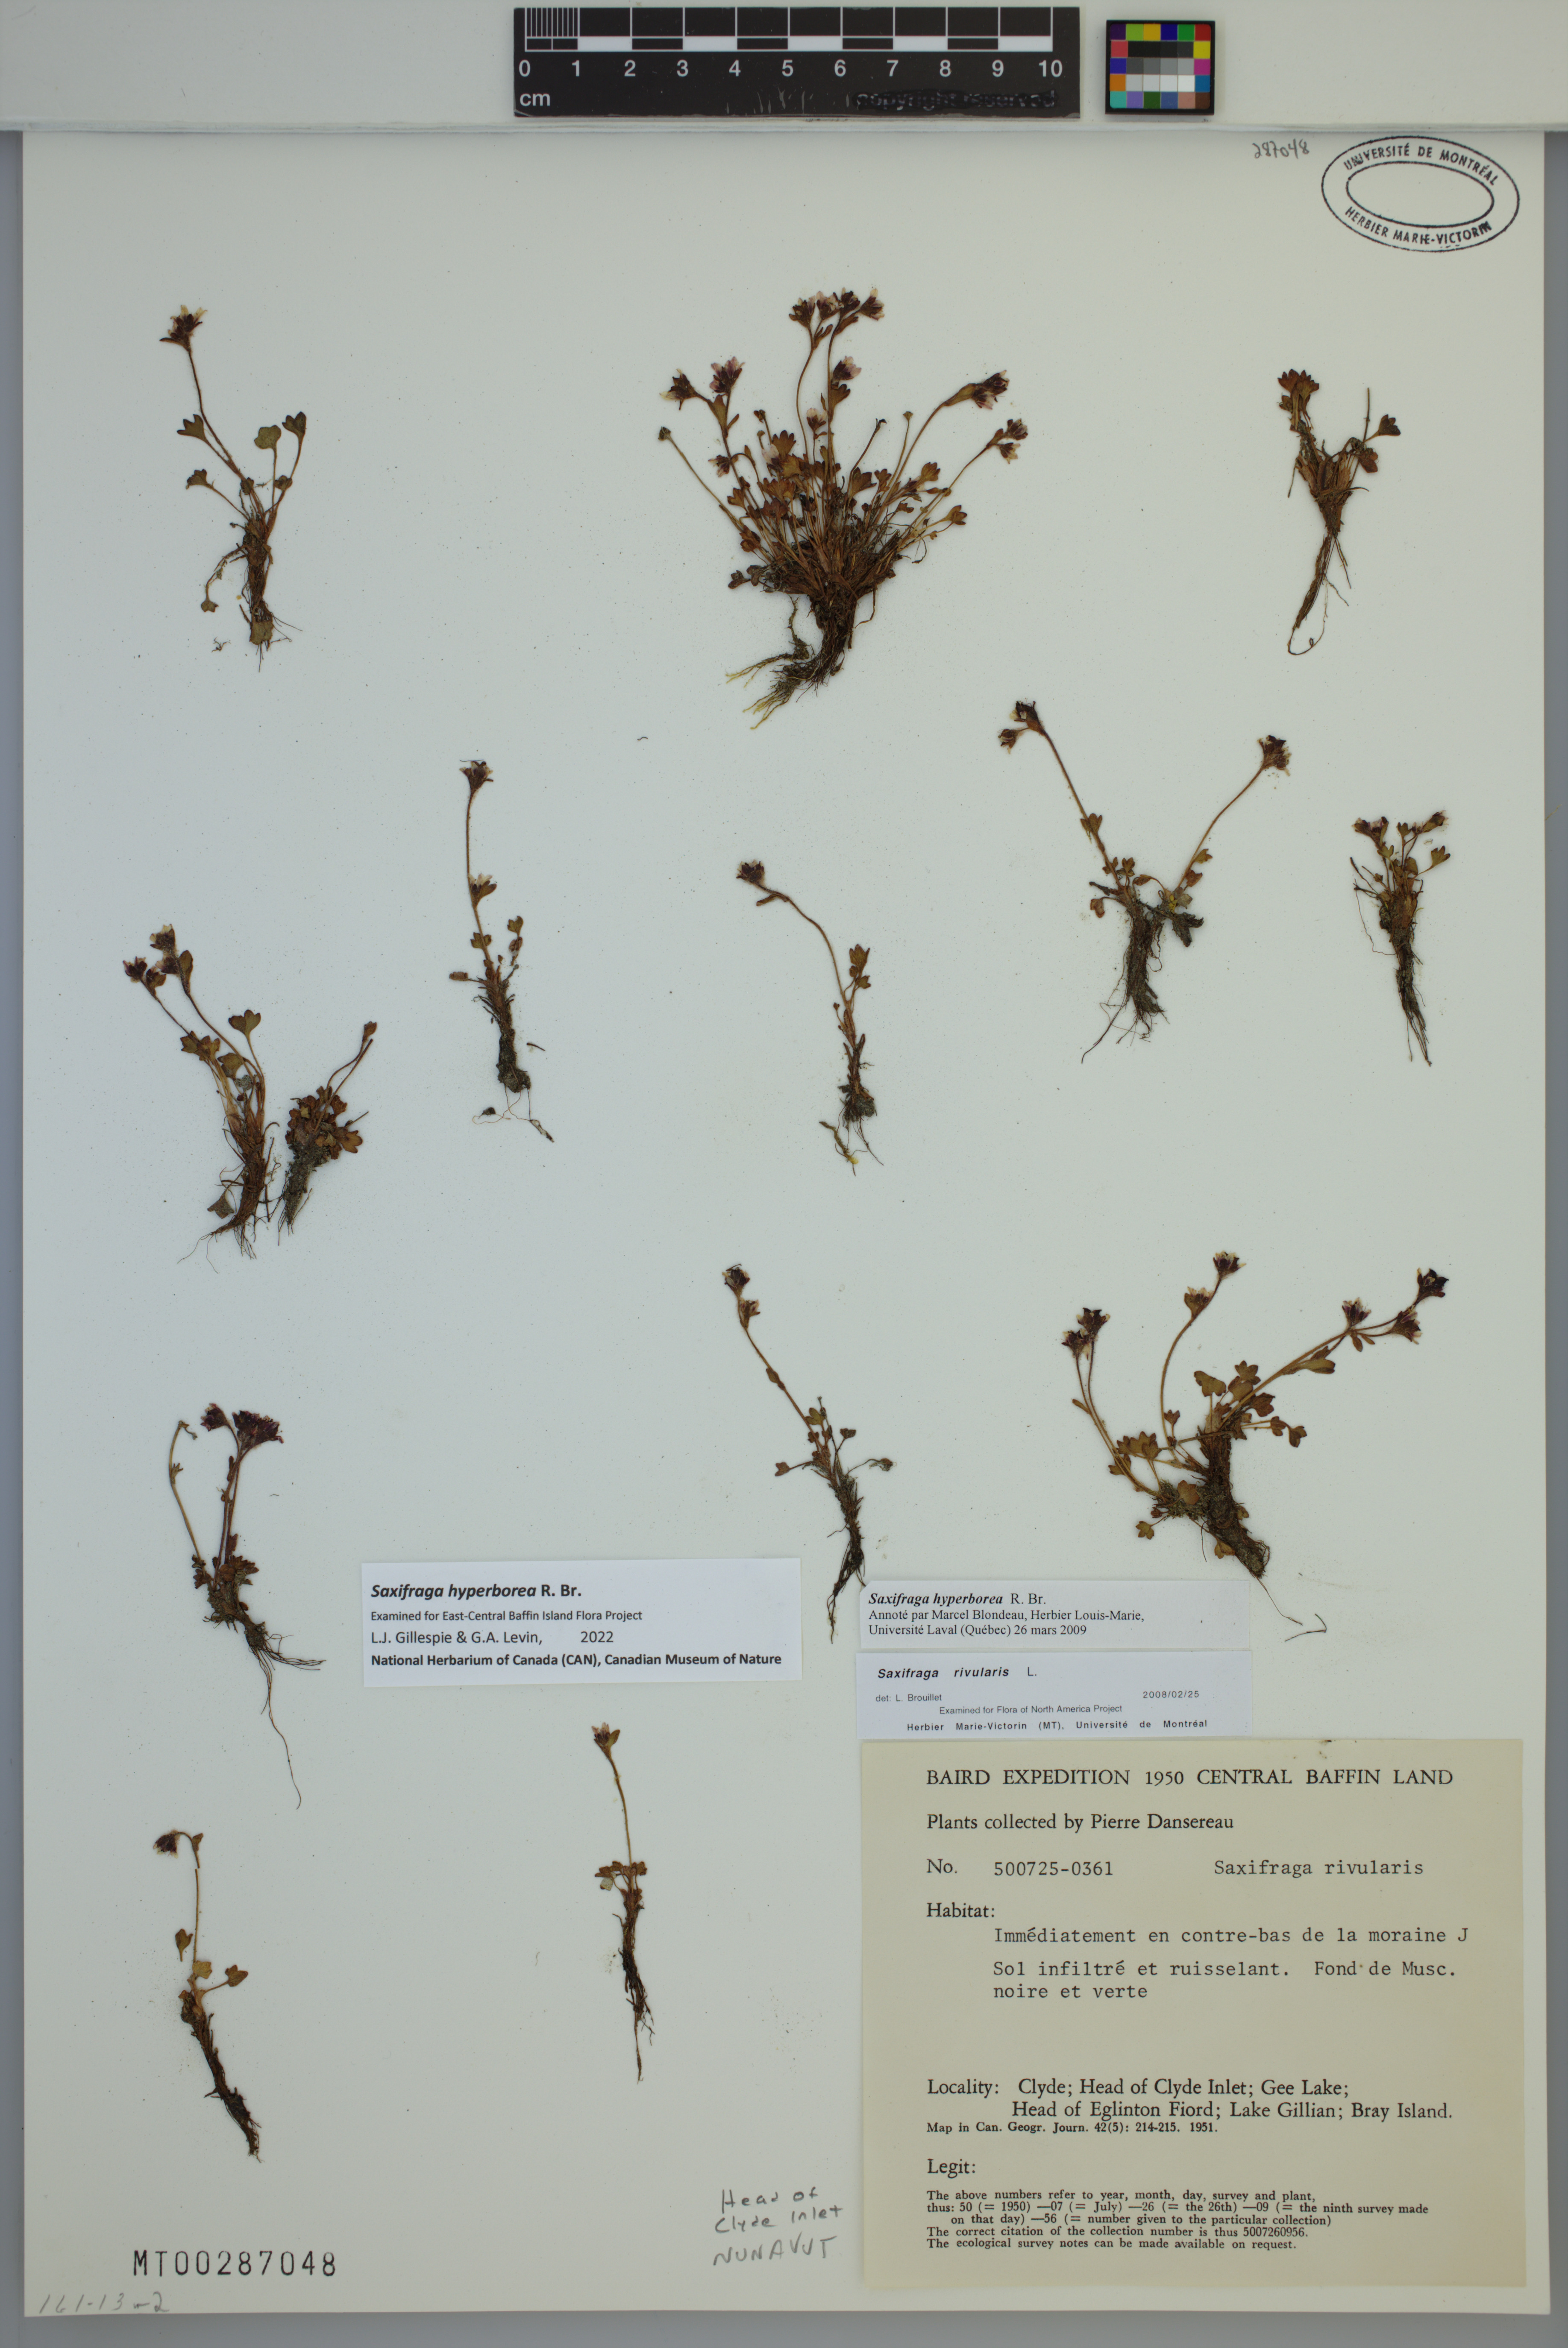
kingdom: Plantae
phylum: Tracheophyta
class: Magnoliopsida
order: Saxifragales
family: Saxifragaceae
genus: Saxifraga
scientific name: Saxifraga hyperborea
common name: Arctic saxifrage
